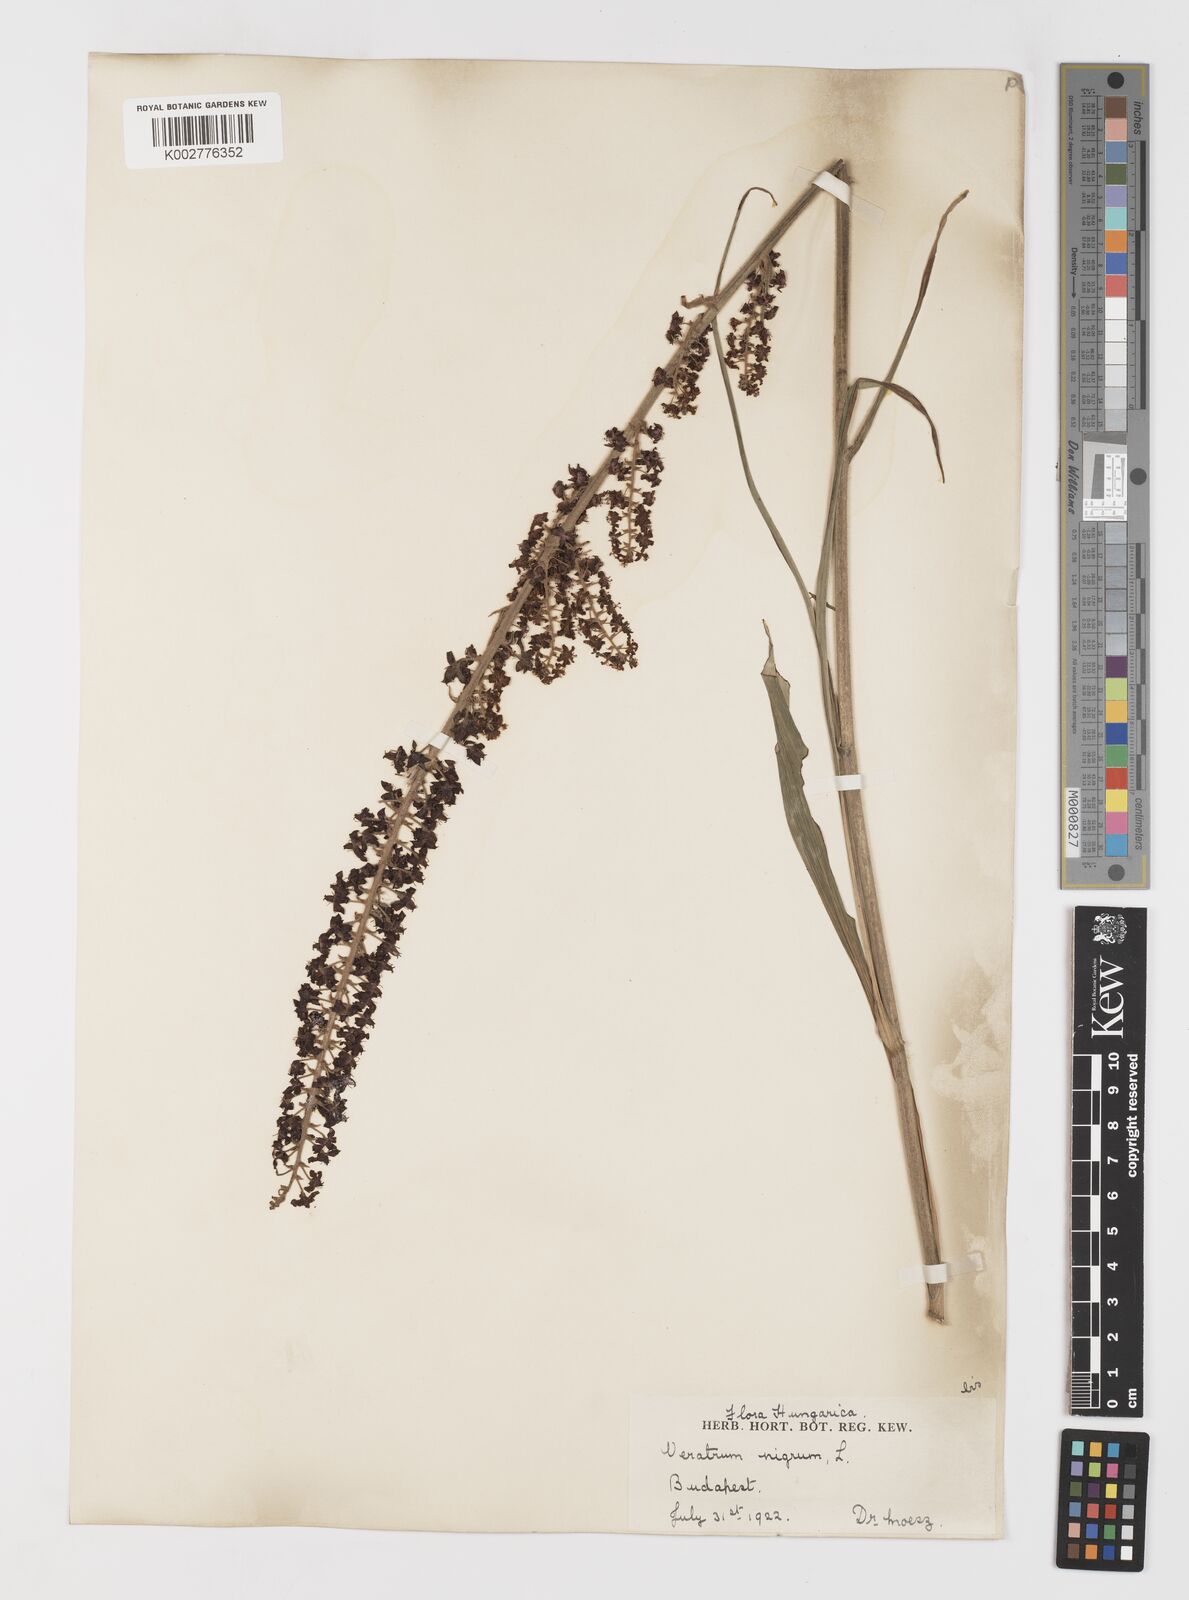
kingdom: Plantae
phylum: Tracheophyta
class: Liliopsida
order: Liliales
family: Melanthiaceae
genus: Veratrum
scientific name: Veratrum nigrum
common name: Black veratrum
